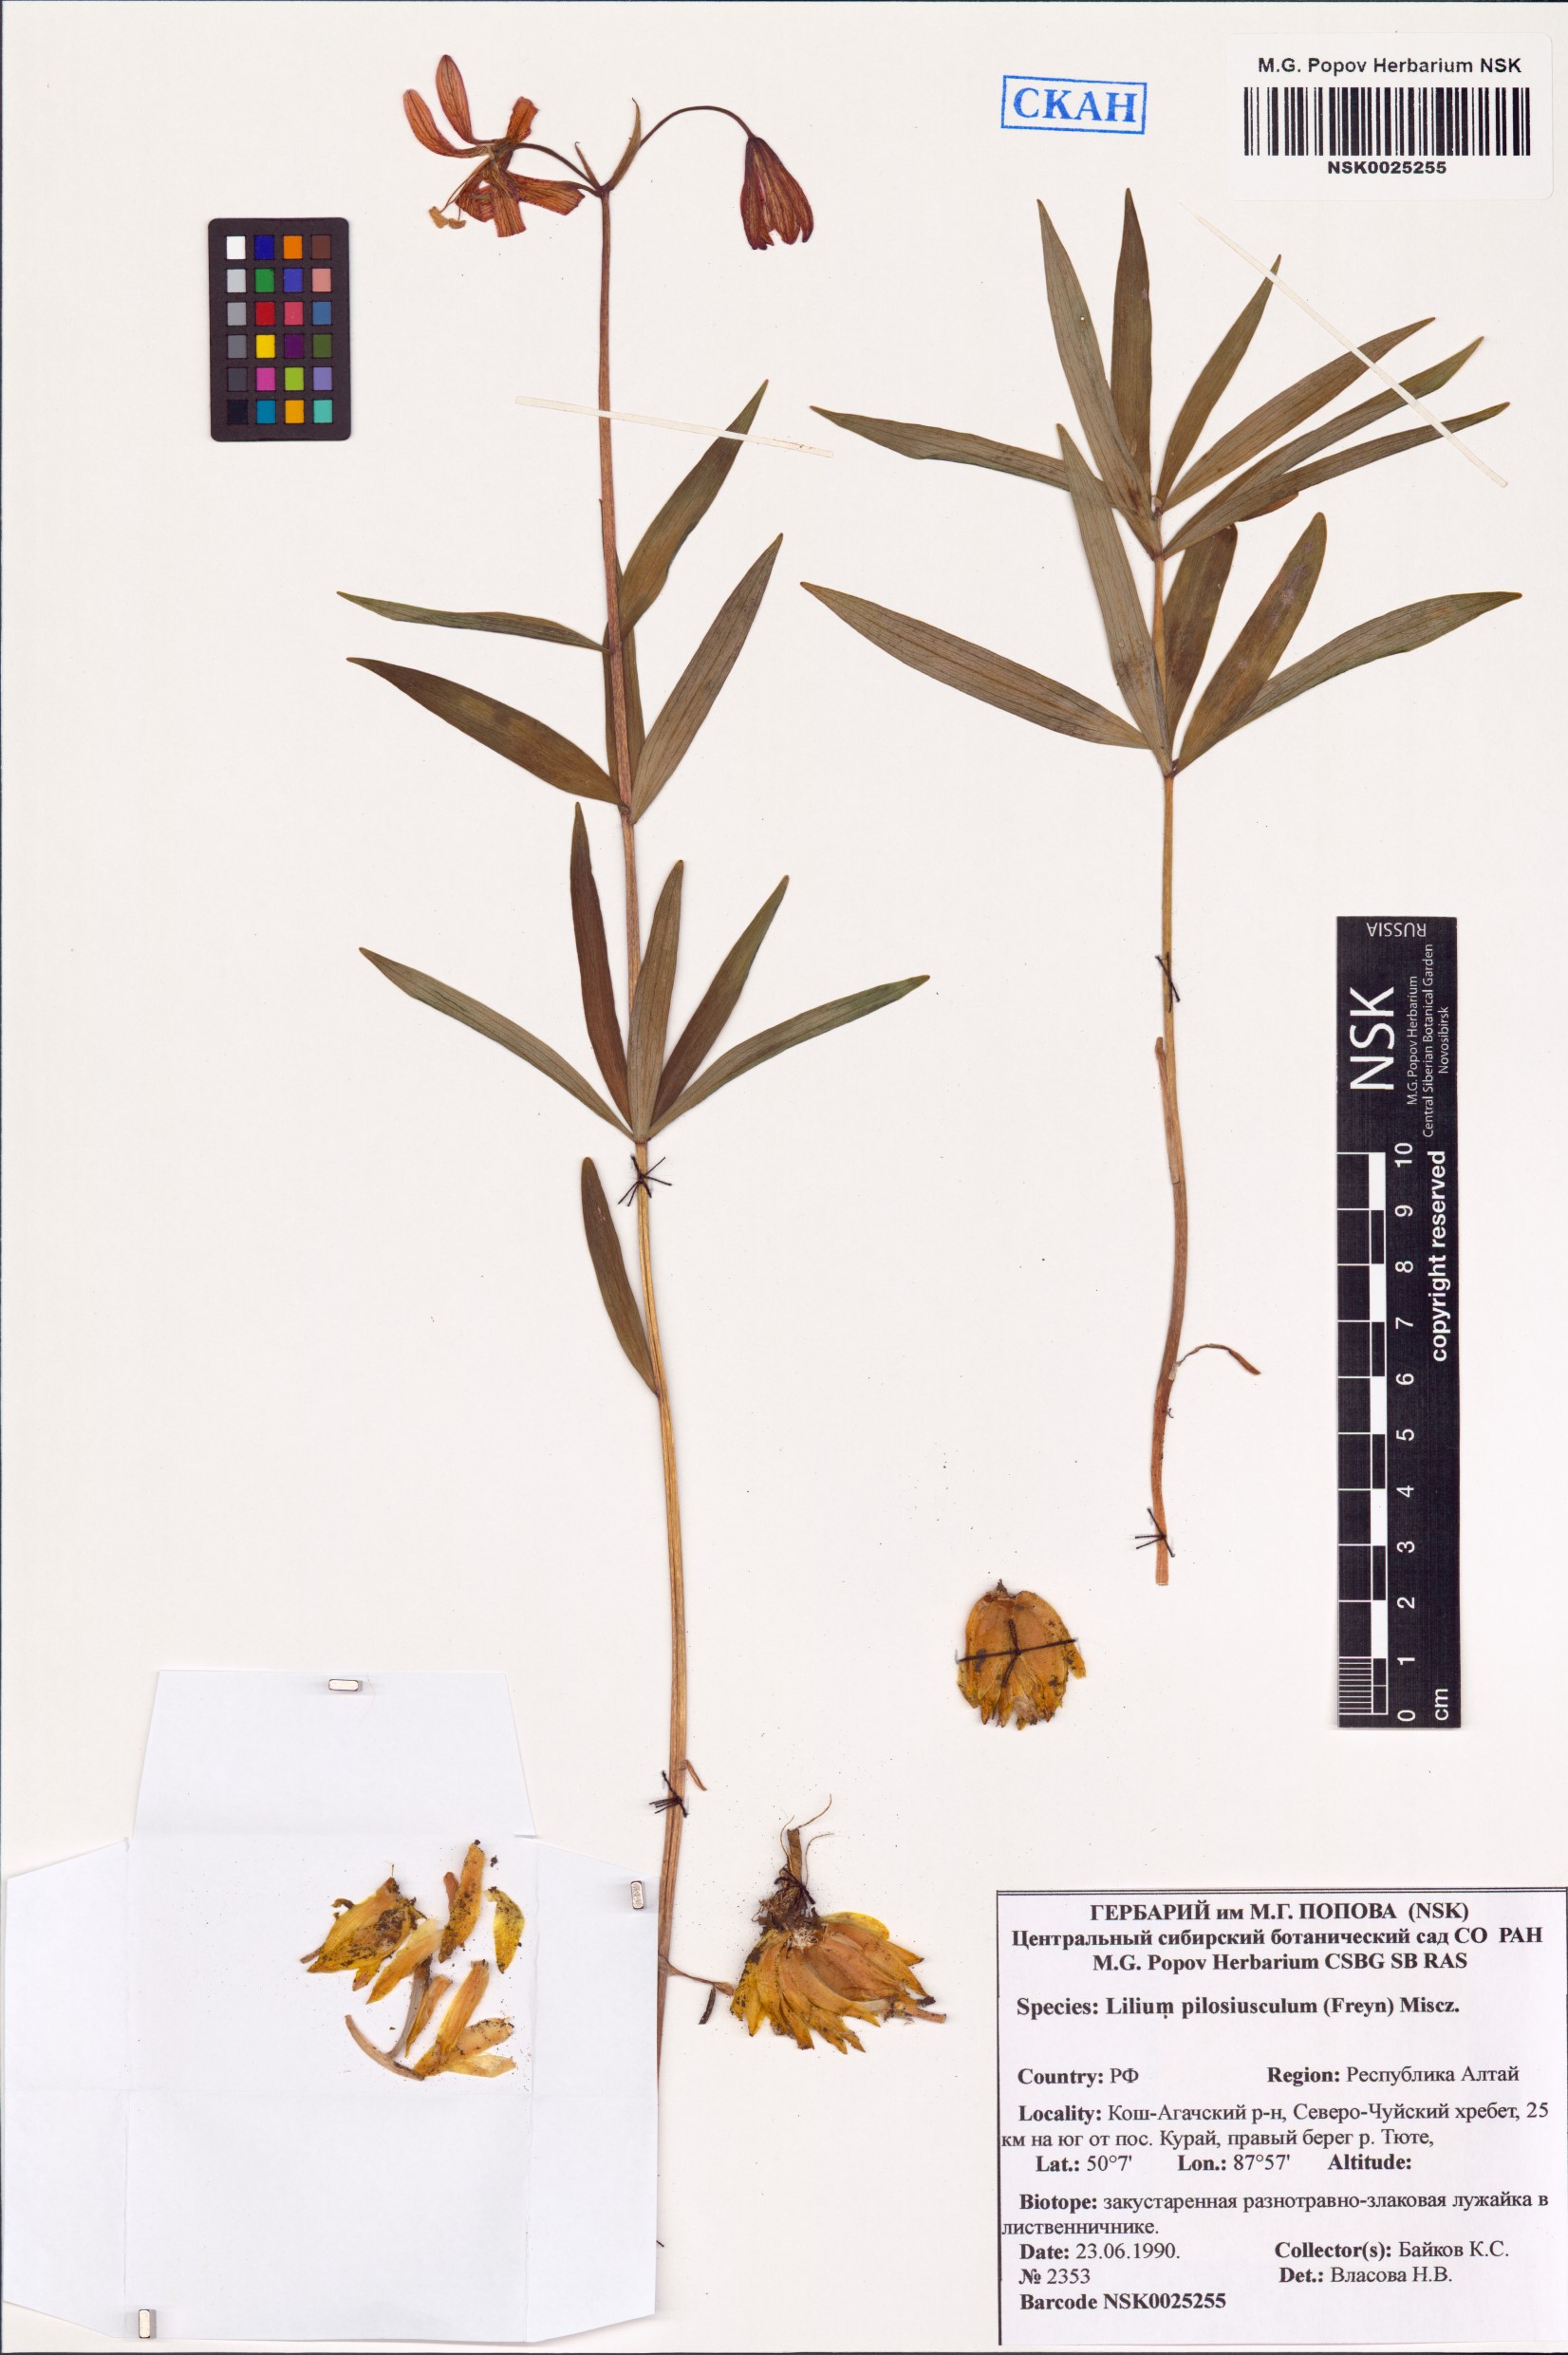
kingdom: Plantae
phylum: Tracheophyta
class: Liliopsida
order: Liliales
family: Liliaceae
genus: Lilium
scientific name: Lilium martagon
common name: Martagon lily
